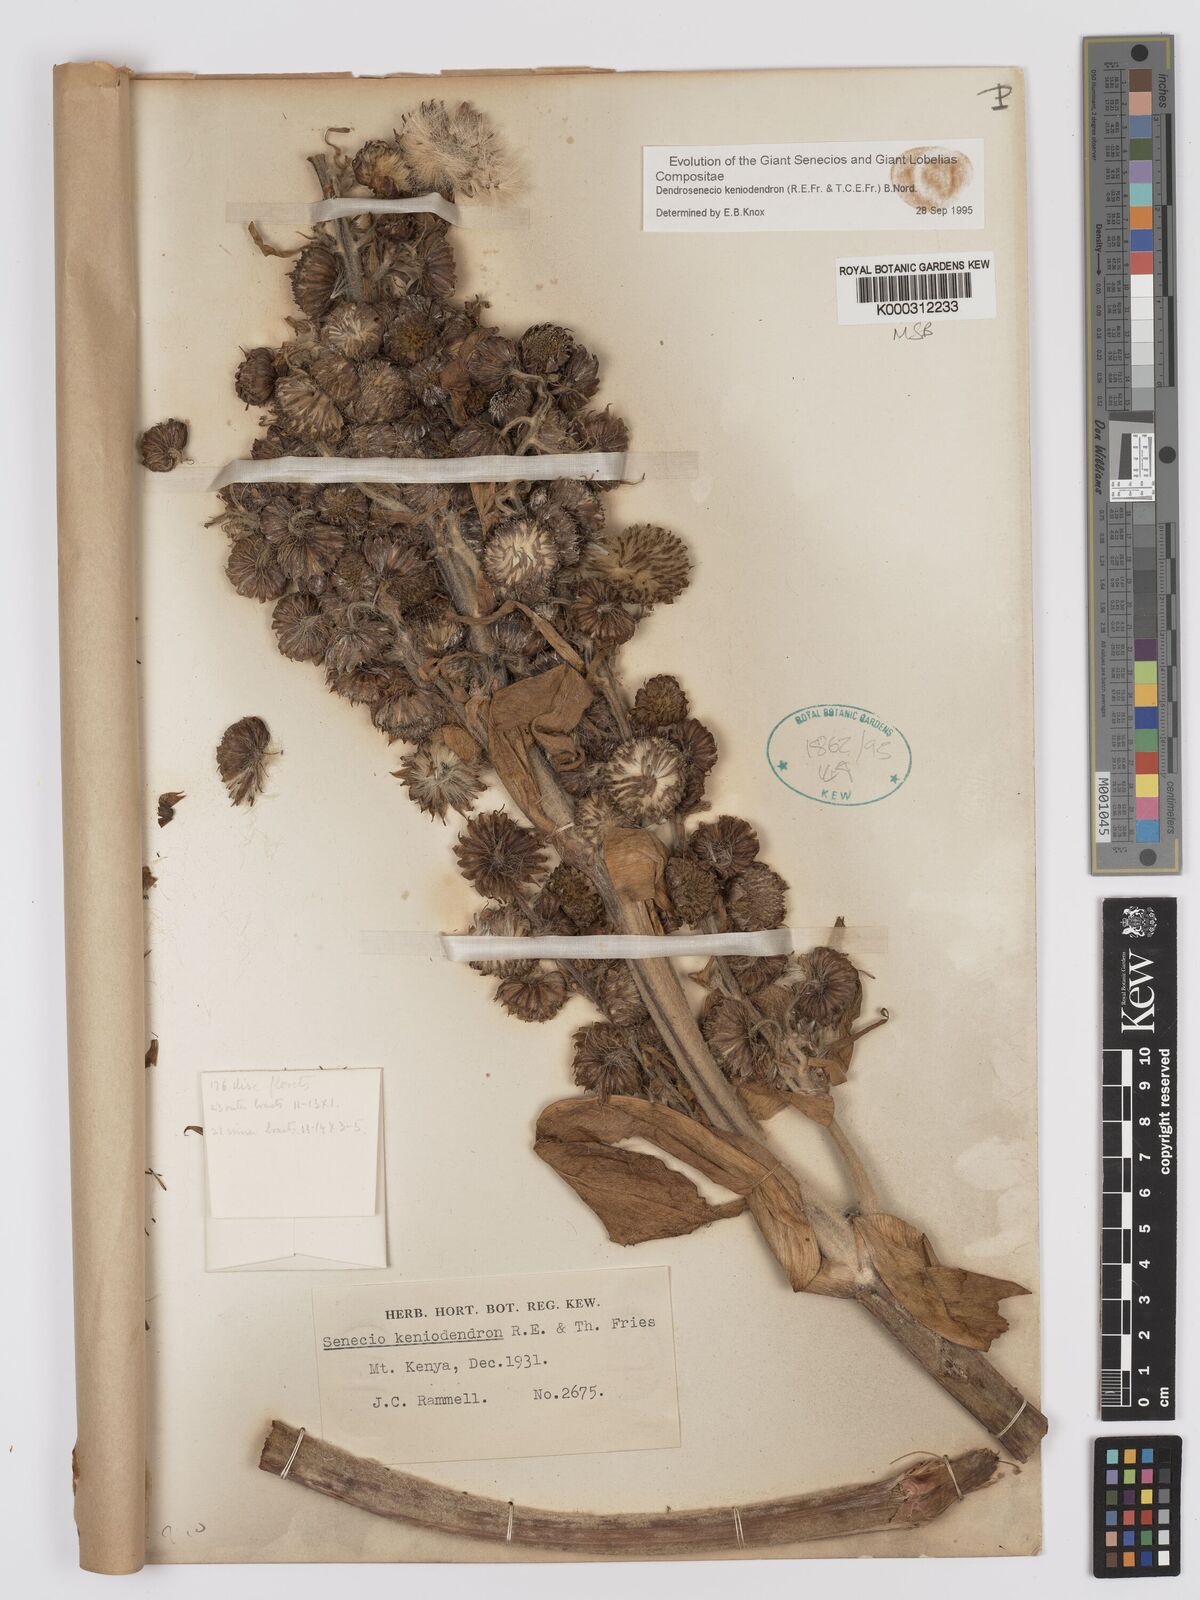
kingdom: Plantae
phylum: Tracheophyta
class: Magnoliopsida
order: Asterales
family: Asteraceae
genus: Dendrosenecio
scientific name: Dendrosenecio keniodendron
